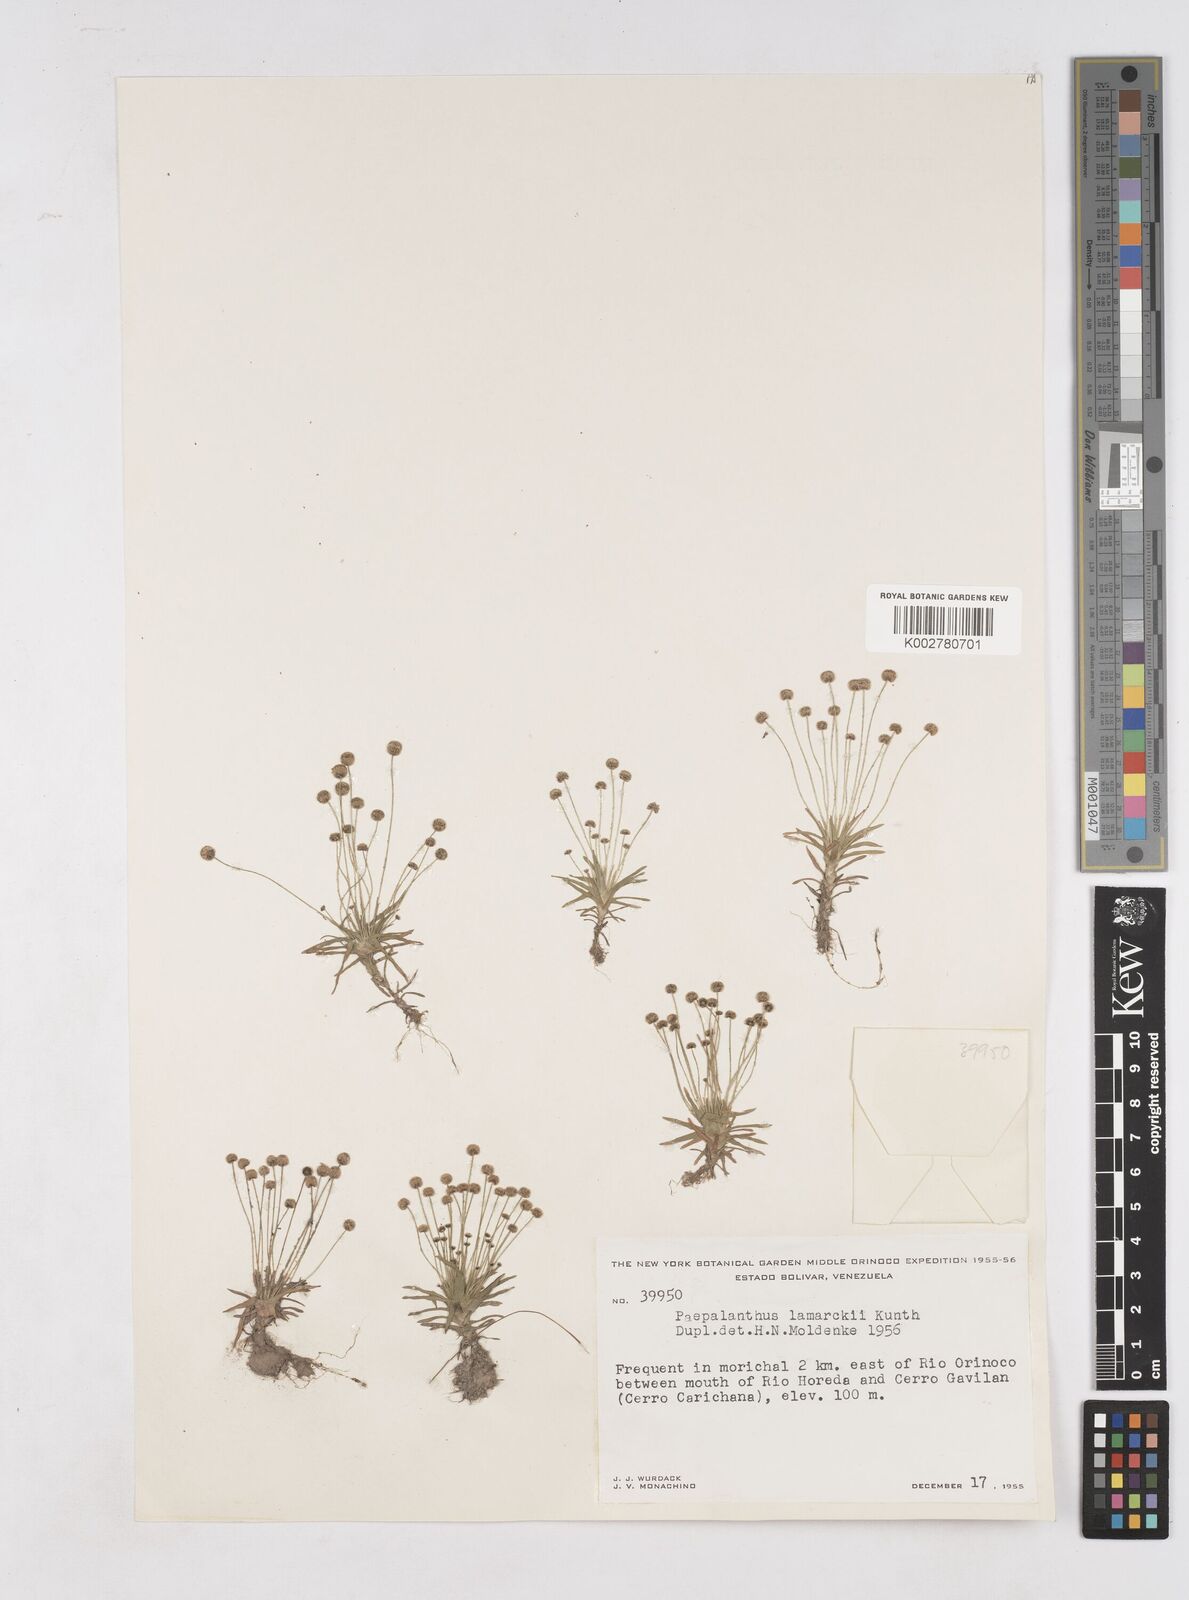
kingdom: Plantae
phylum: Tracheophyta
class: Liliopsida
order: Poales
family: Eriocaulaceae
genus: Paepalanthus
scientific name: Paepalanthus lamarckii
